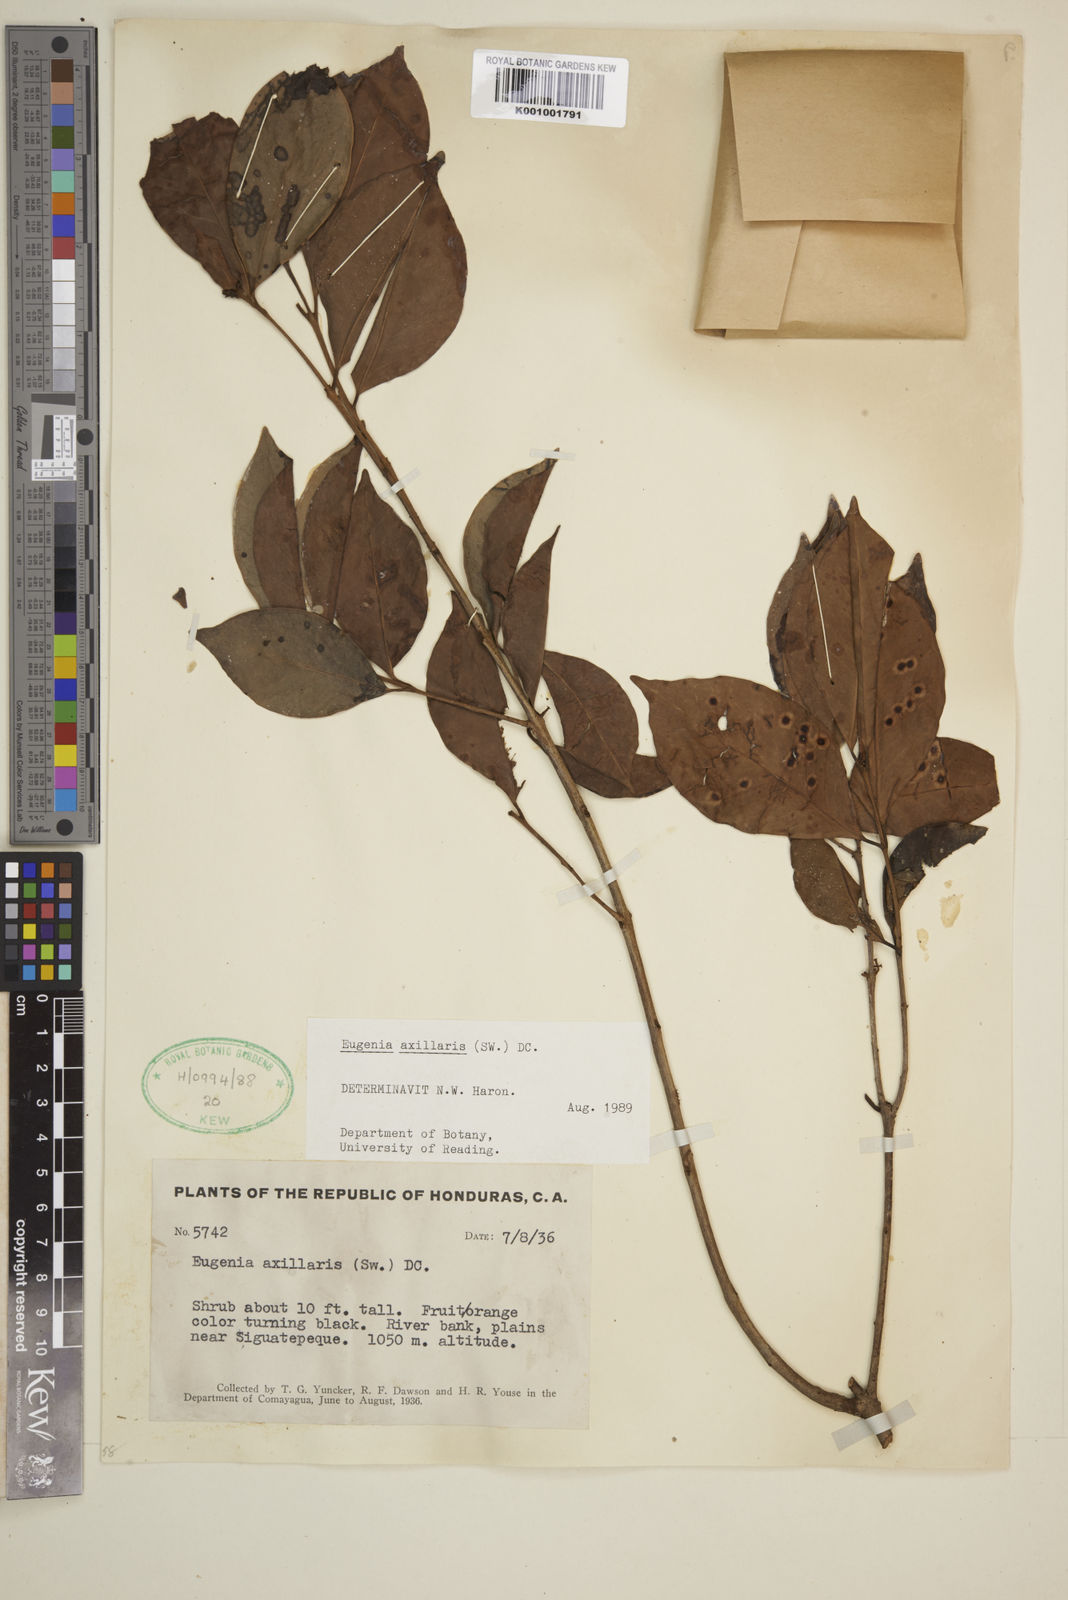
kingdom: Plantae
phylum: Tracheophyta
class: Magnoliopsida
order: Myrtales
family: Myrtaceae
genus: Eugenia
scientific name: Eugenia axillaris
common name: Choaky berry
